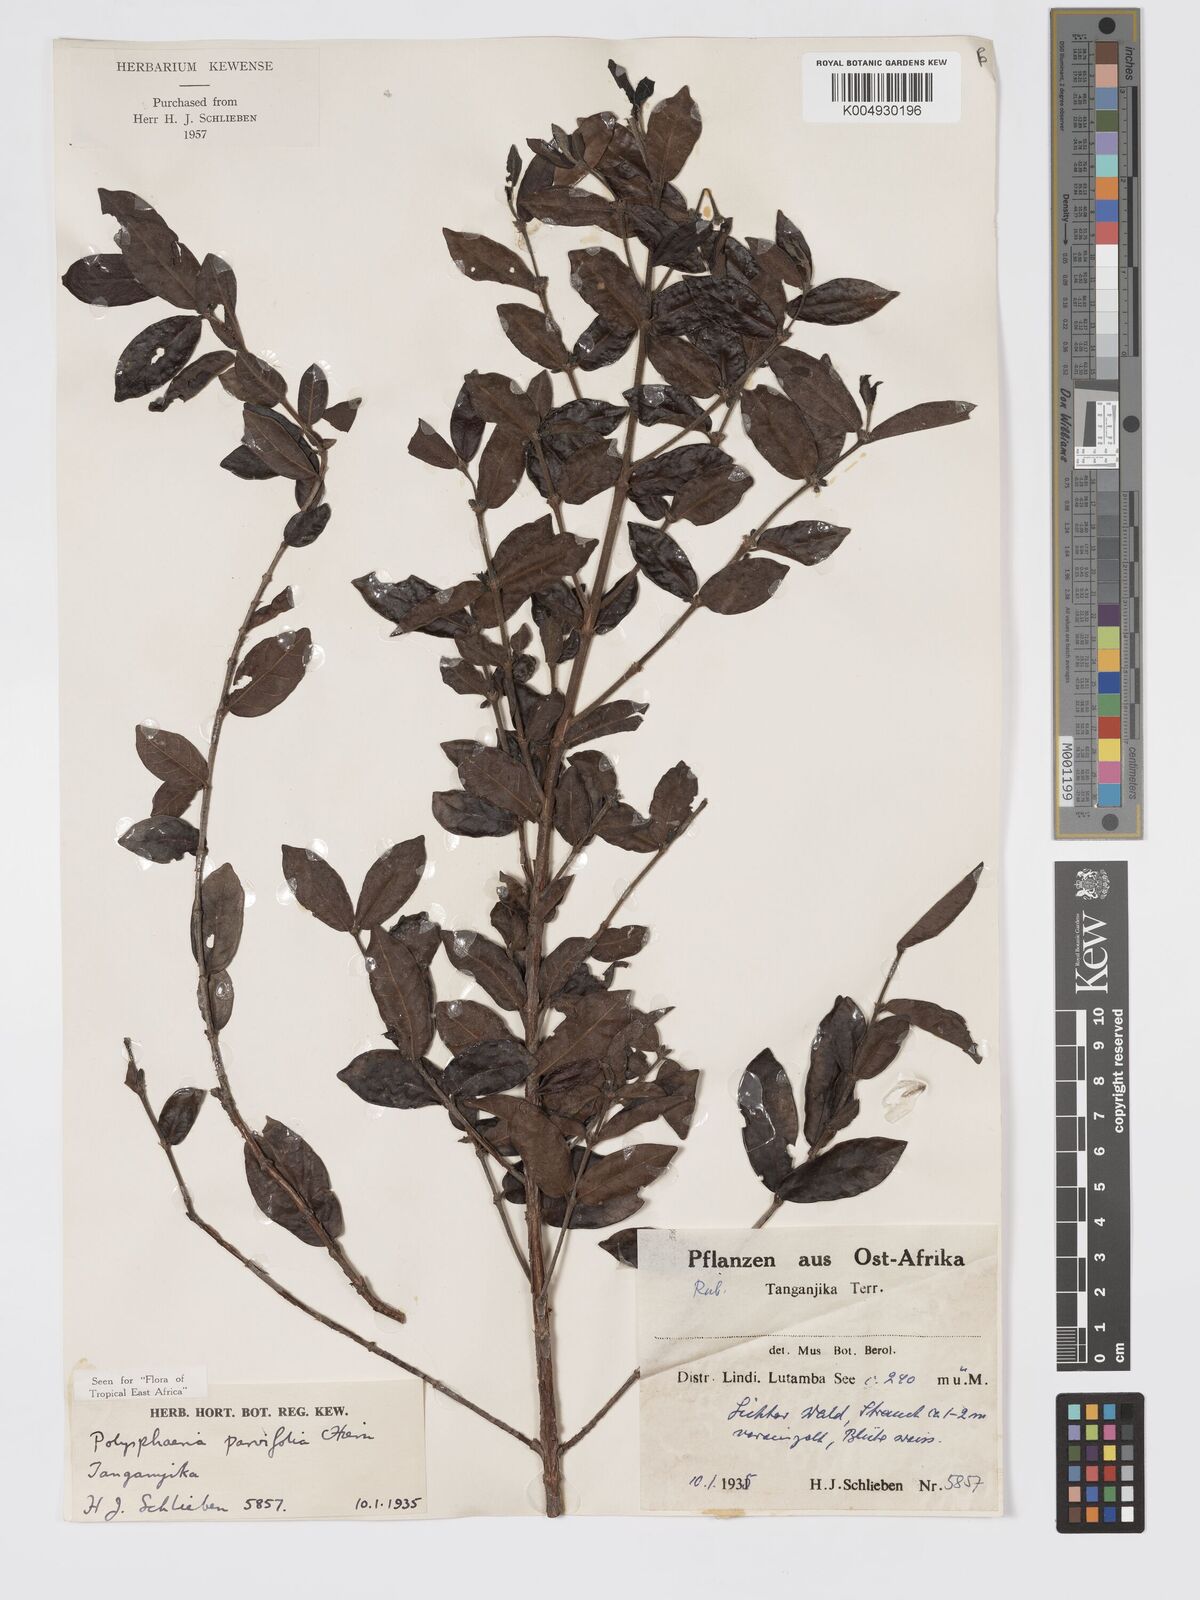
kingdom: Plantae
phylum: Tracheophyta
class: Magnoliopsida
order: Gentianales
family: Rubiaceae
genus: Polysphaeria
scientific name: Polysphaeria parvifolia
